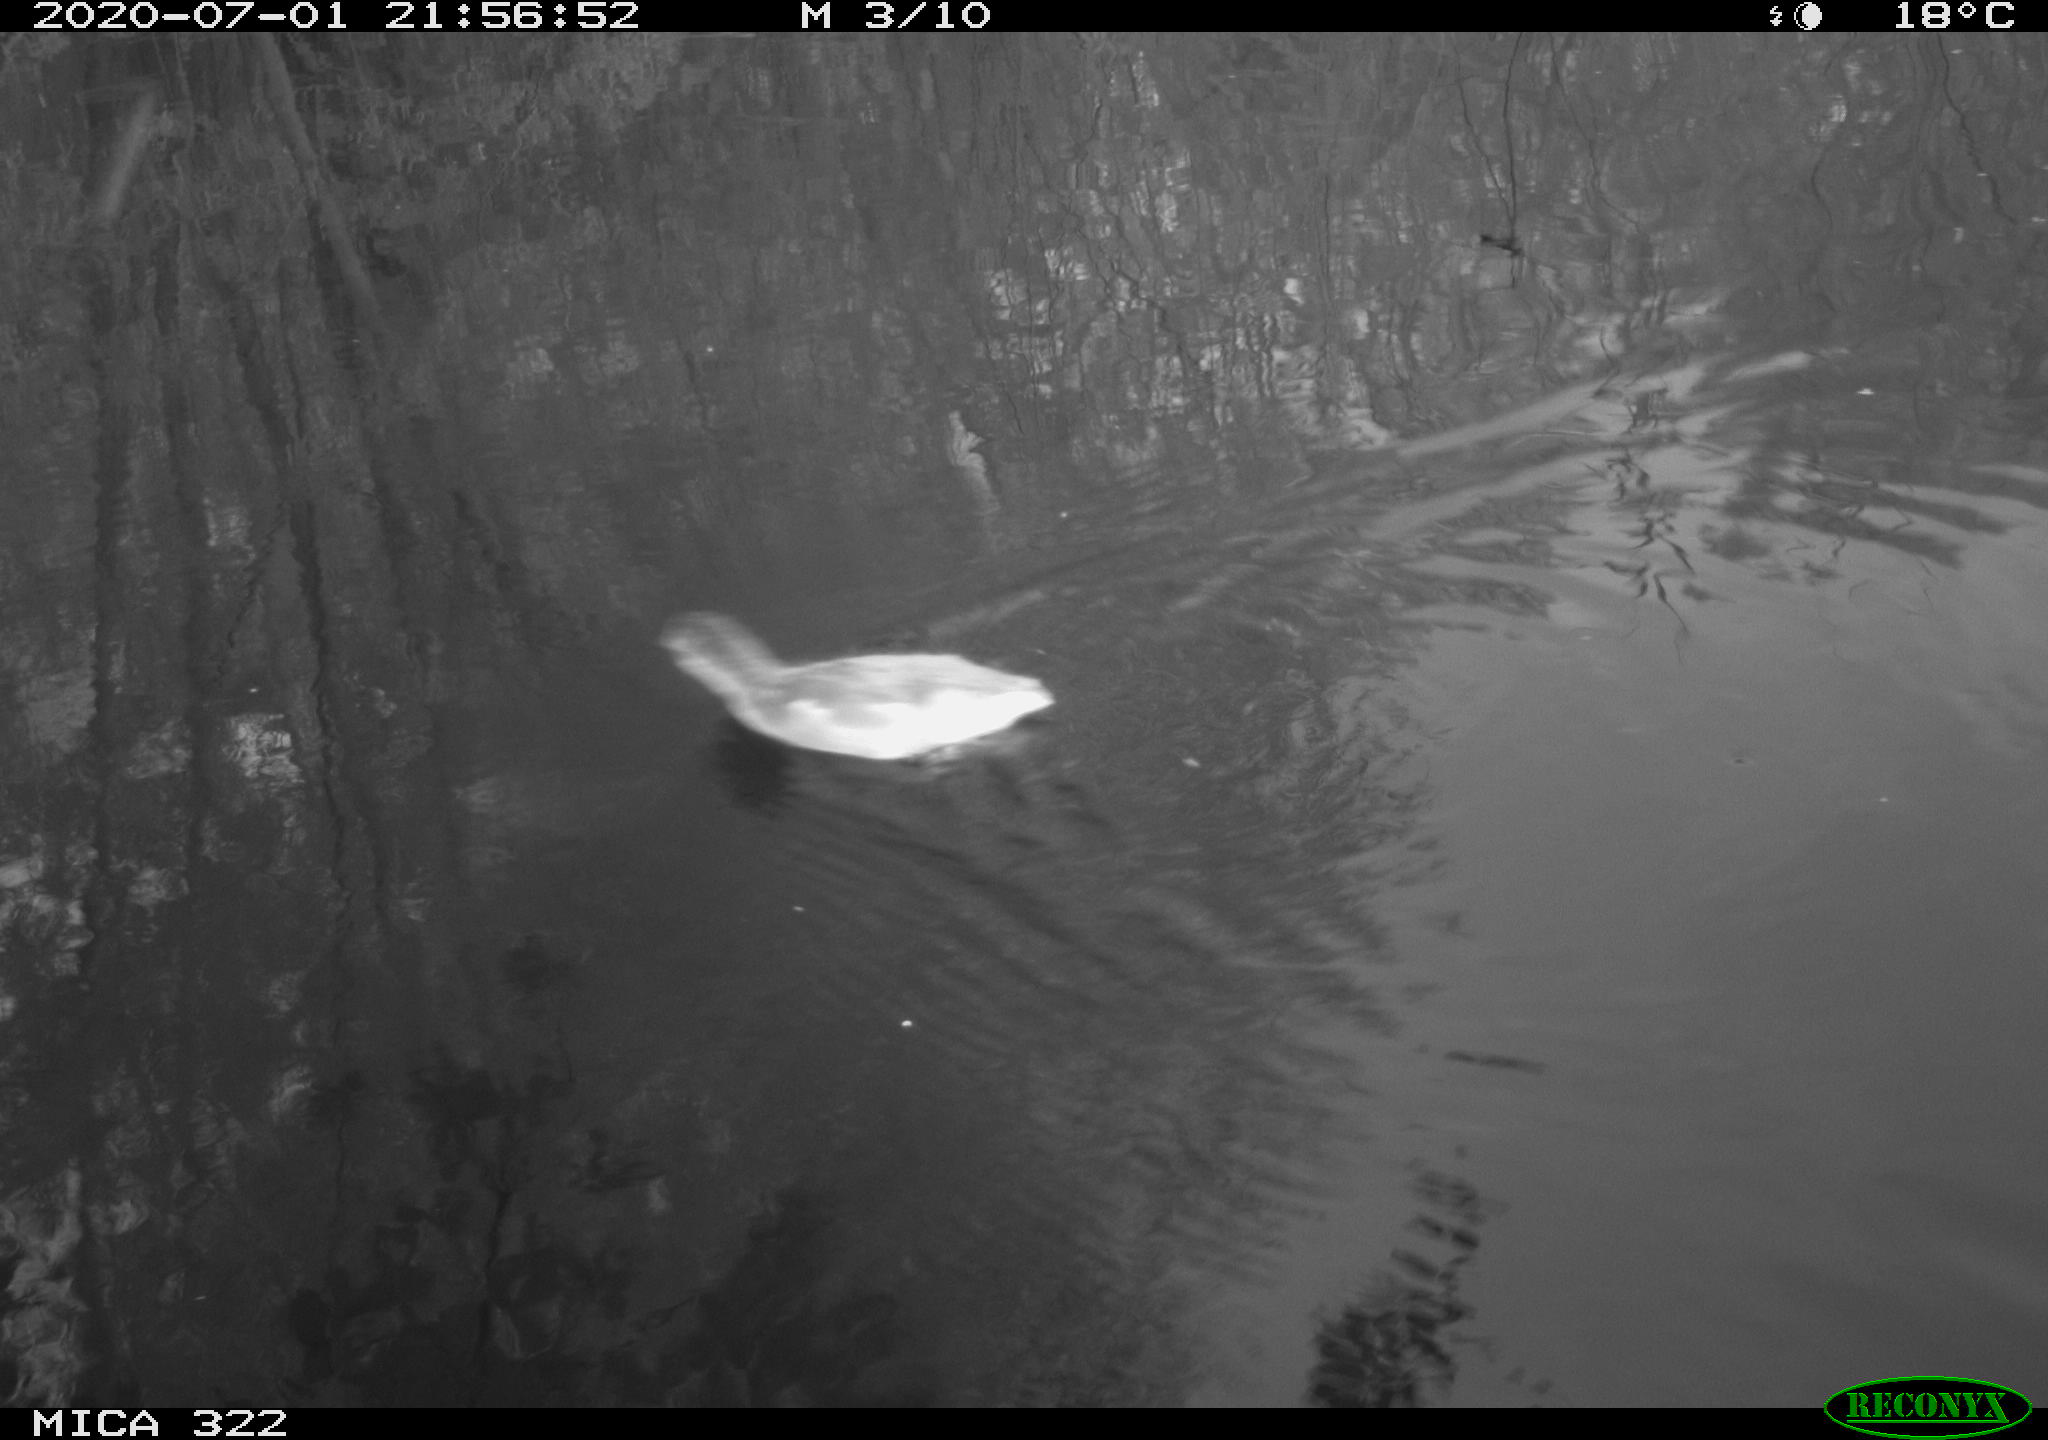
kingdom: Animalia
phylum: Chordata
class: Aves
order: Gruiformes
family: Rallidae
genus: Gallinula
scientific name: Gallinula chloropus
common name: Common moorhen
